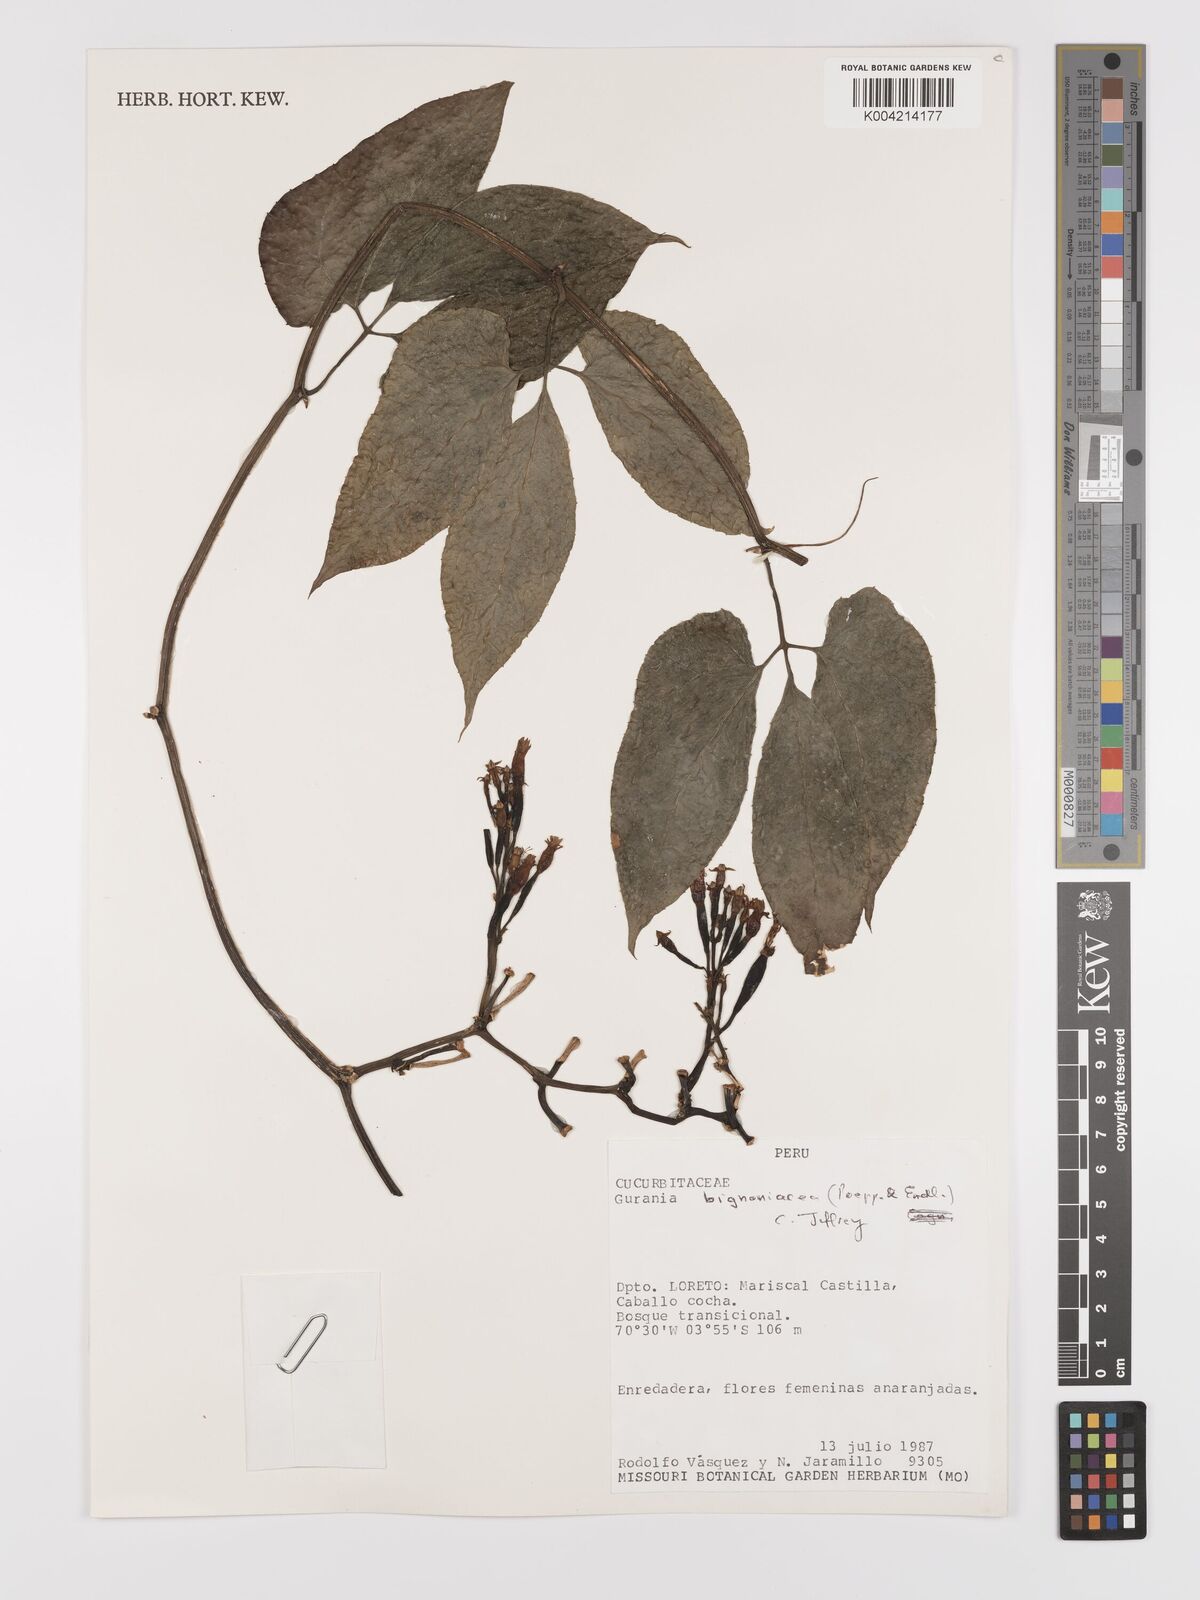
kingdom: Plantae
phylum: Tracheophyta
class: Magnoliopsida
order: Cucurbitales
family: Cucurbitaceae
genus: Gurania
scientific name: Gurania bignoniacea
